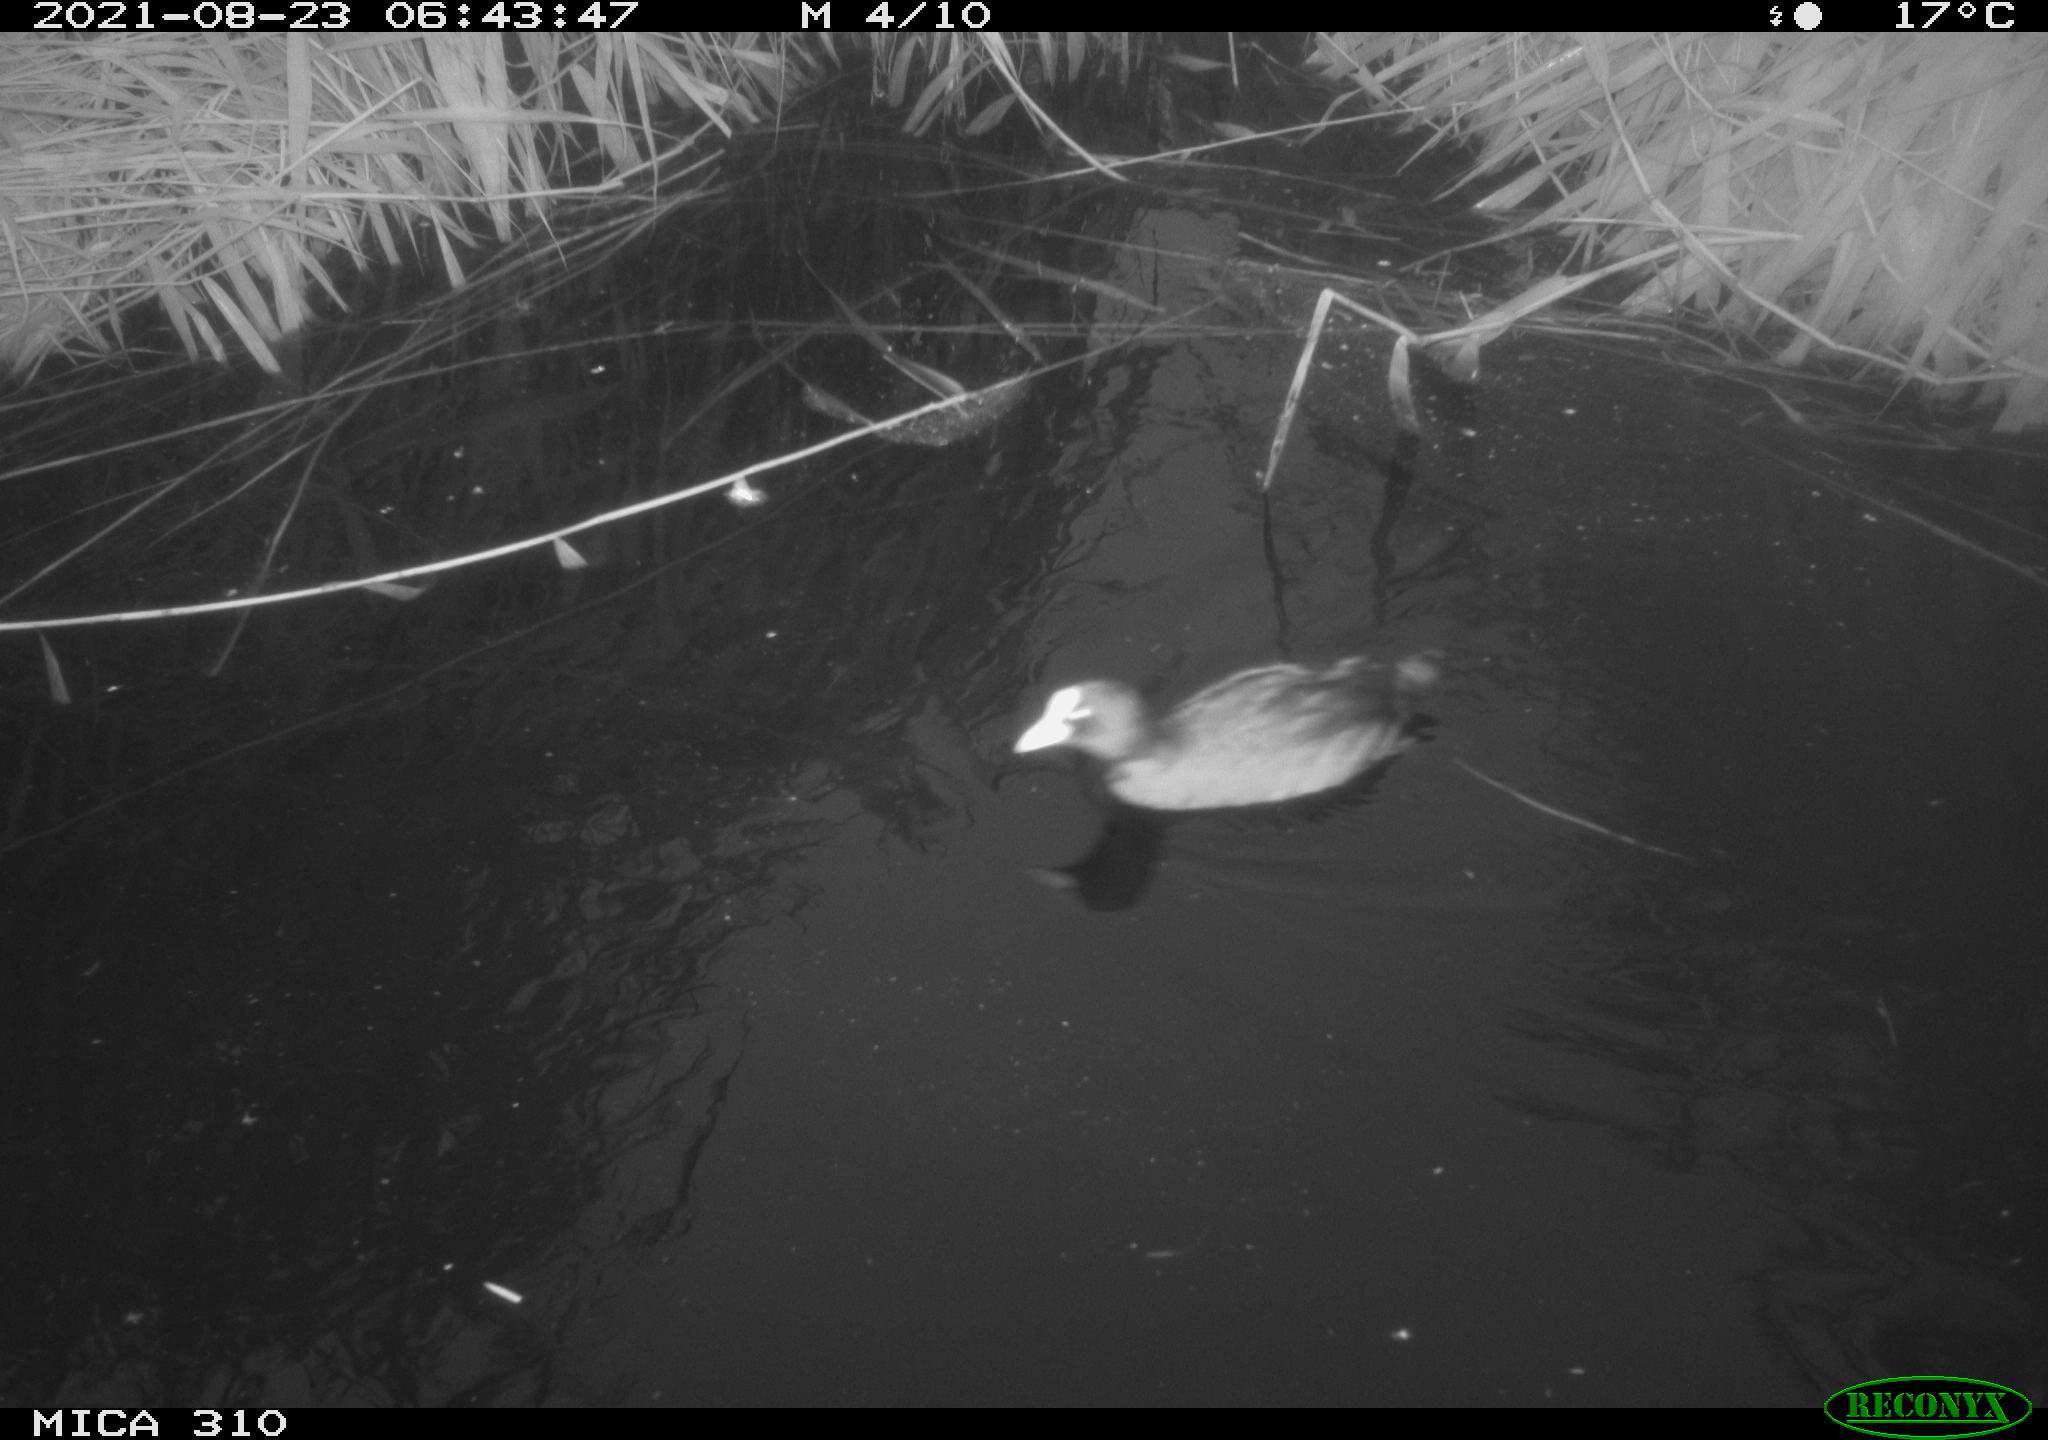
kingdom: Animalia
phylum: Chordata
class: Aves
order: Gruiformes
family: Rallidae
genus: Fulica
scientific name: Fulica atra
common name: Eurasian coot
